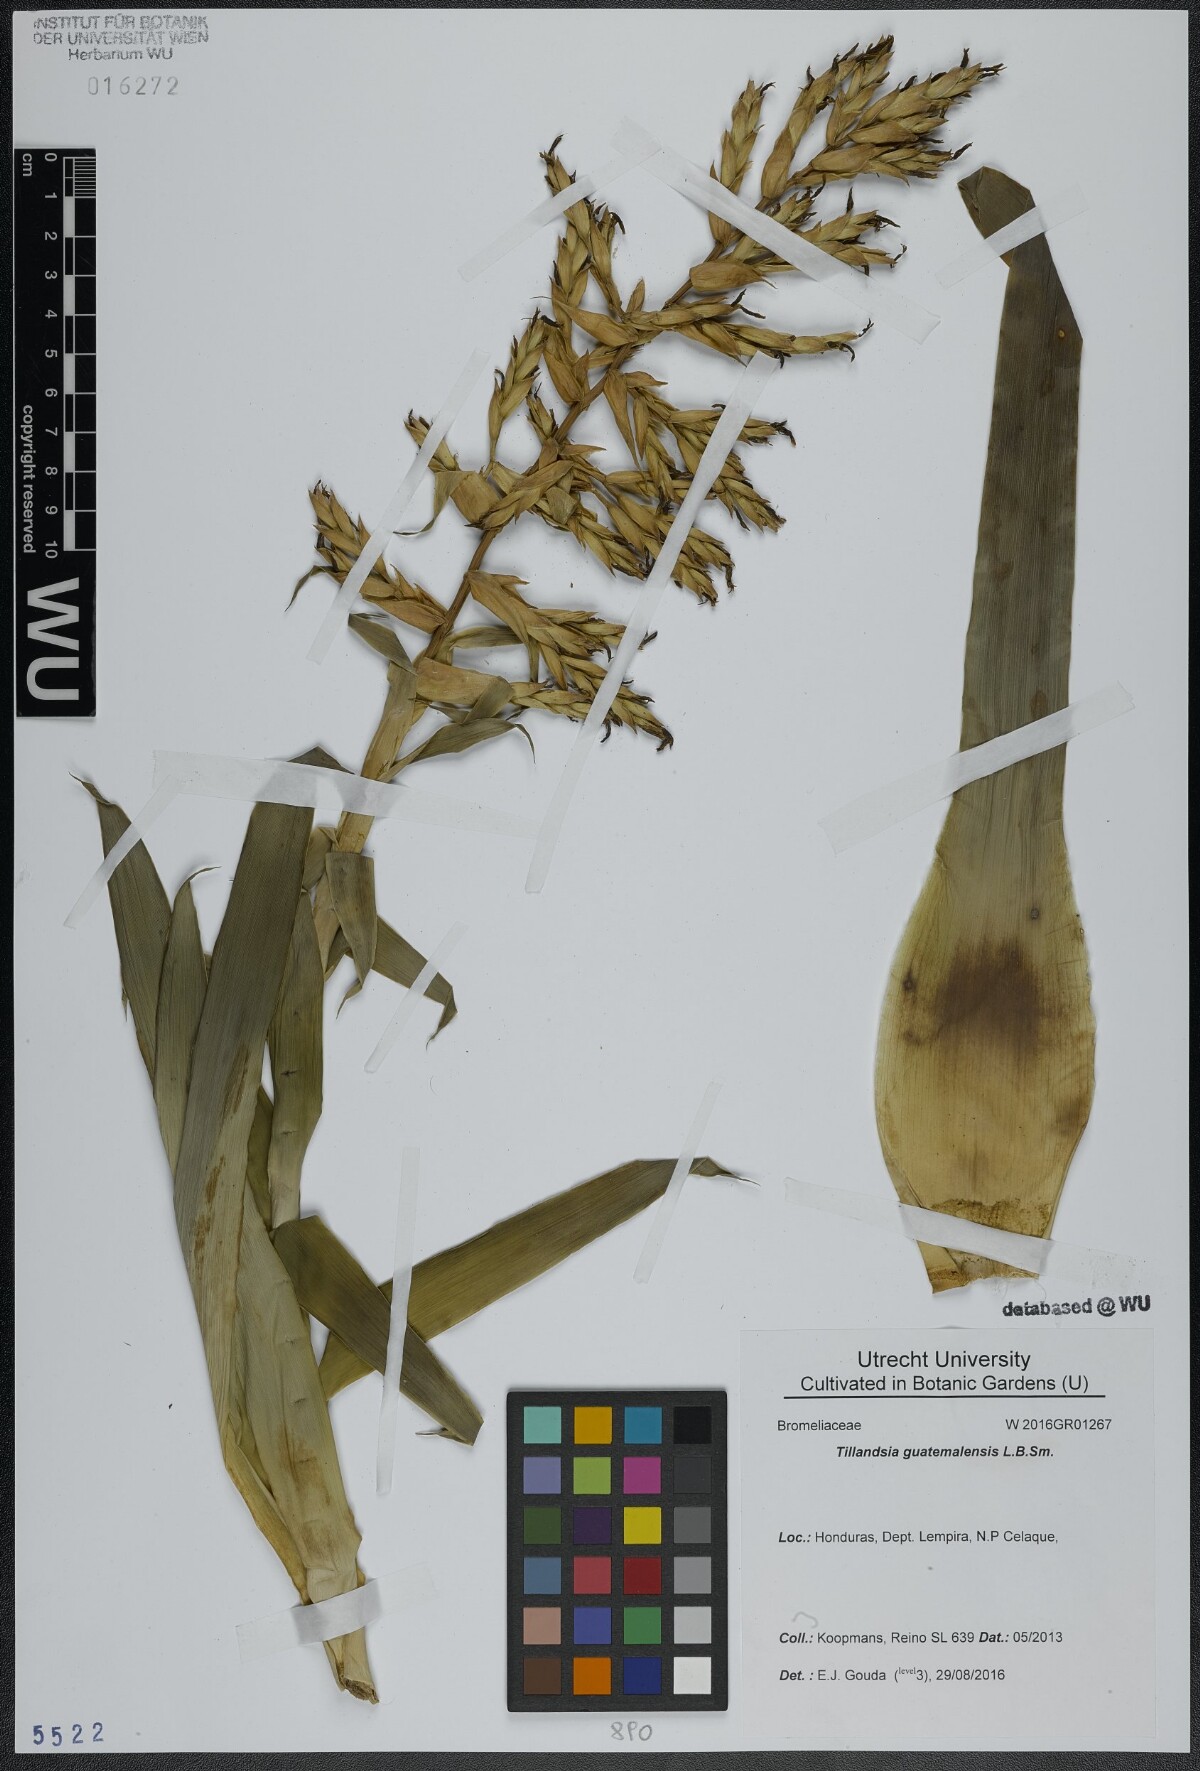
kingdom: Plantae
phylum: Tracheophyta
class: Liliopsida
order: Poales
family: Bromeliaceae
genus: Tillandsia
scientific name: Tillandsia guatemalensis
